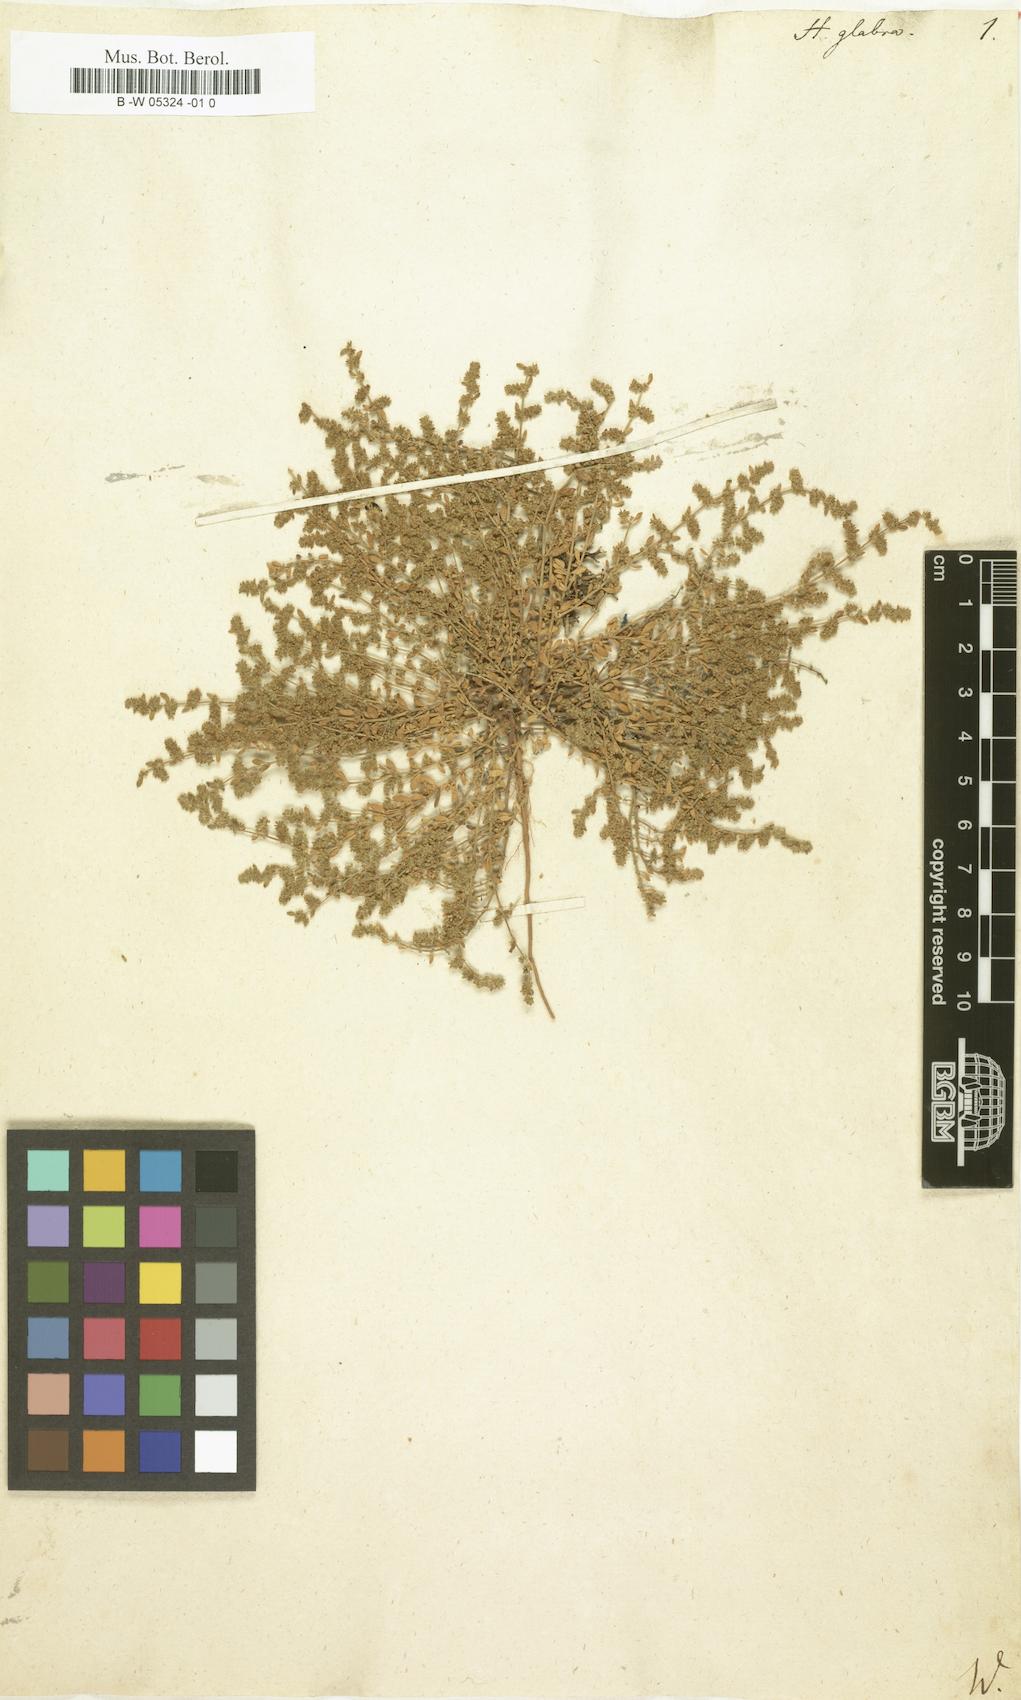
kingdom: Plantae
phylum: Tracheophyta
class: Magnoliopsida
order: Caryophyllales
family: Caryophyllaceae
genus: Herniaria
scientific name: Herniaria glabra
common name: Smooth rupturewort
